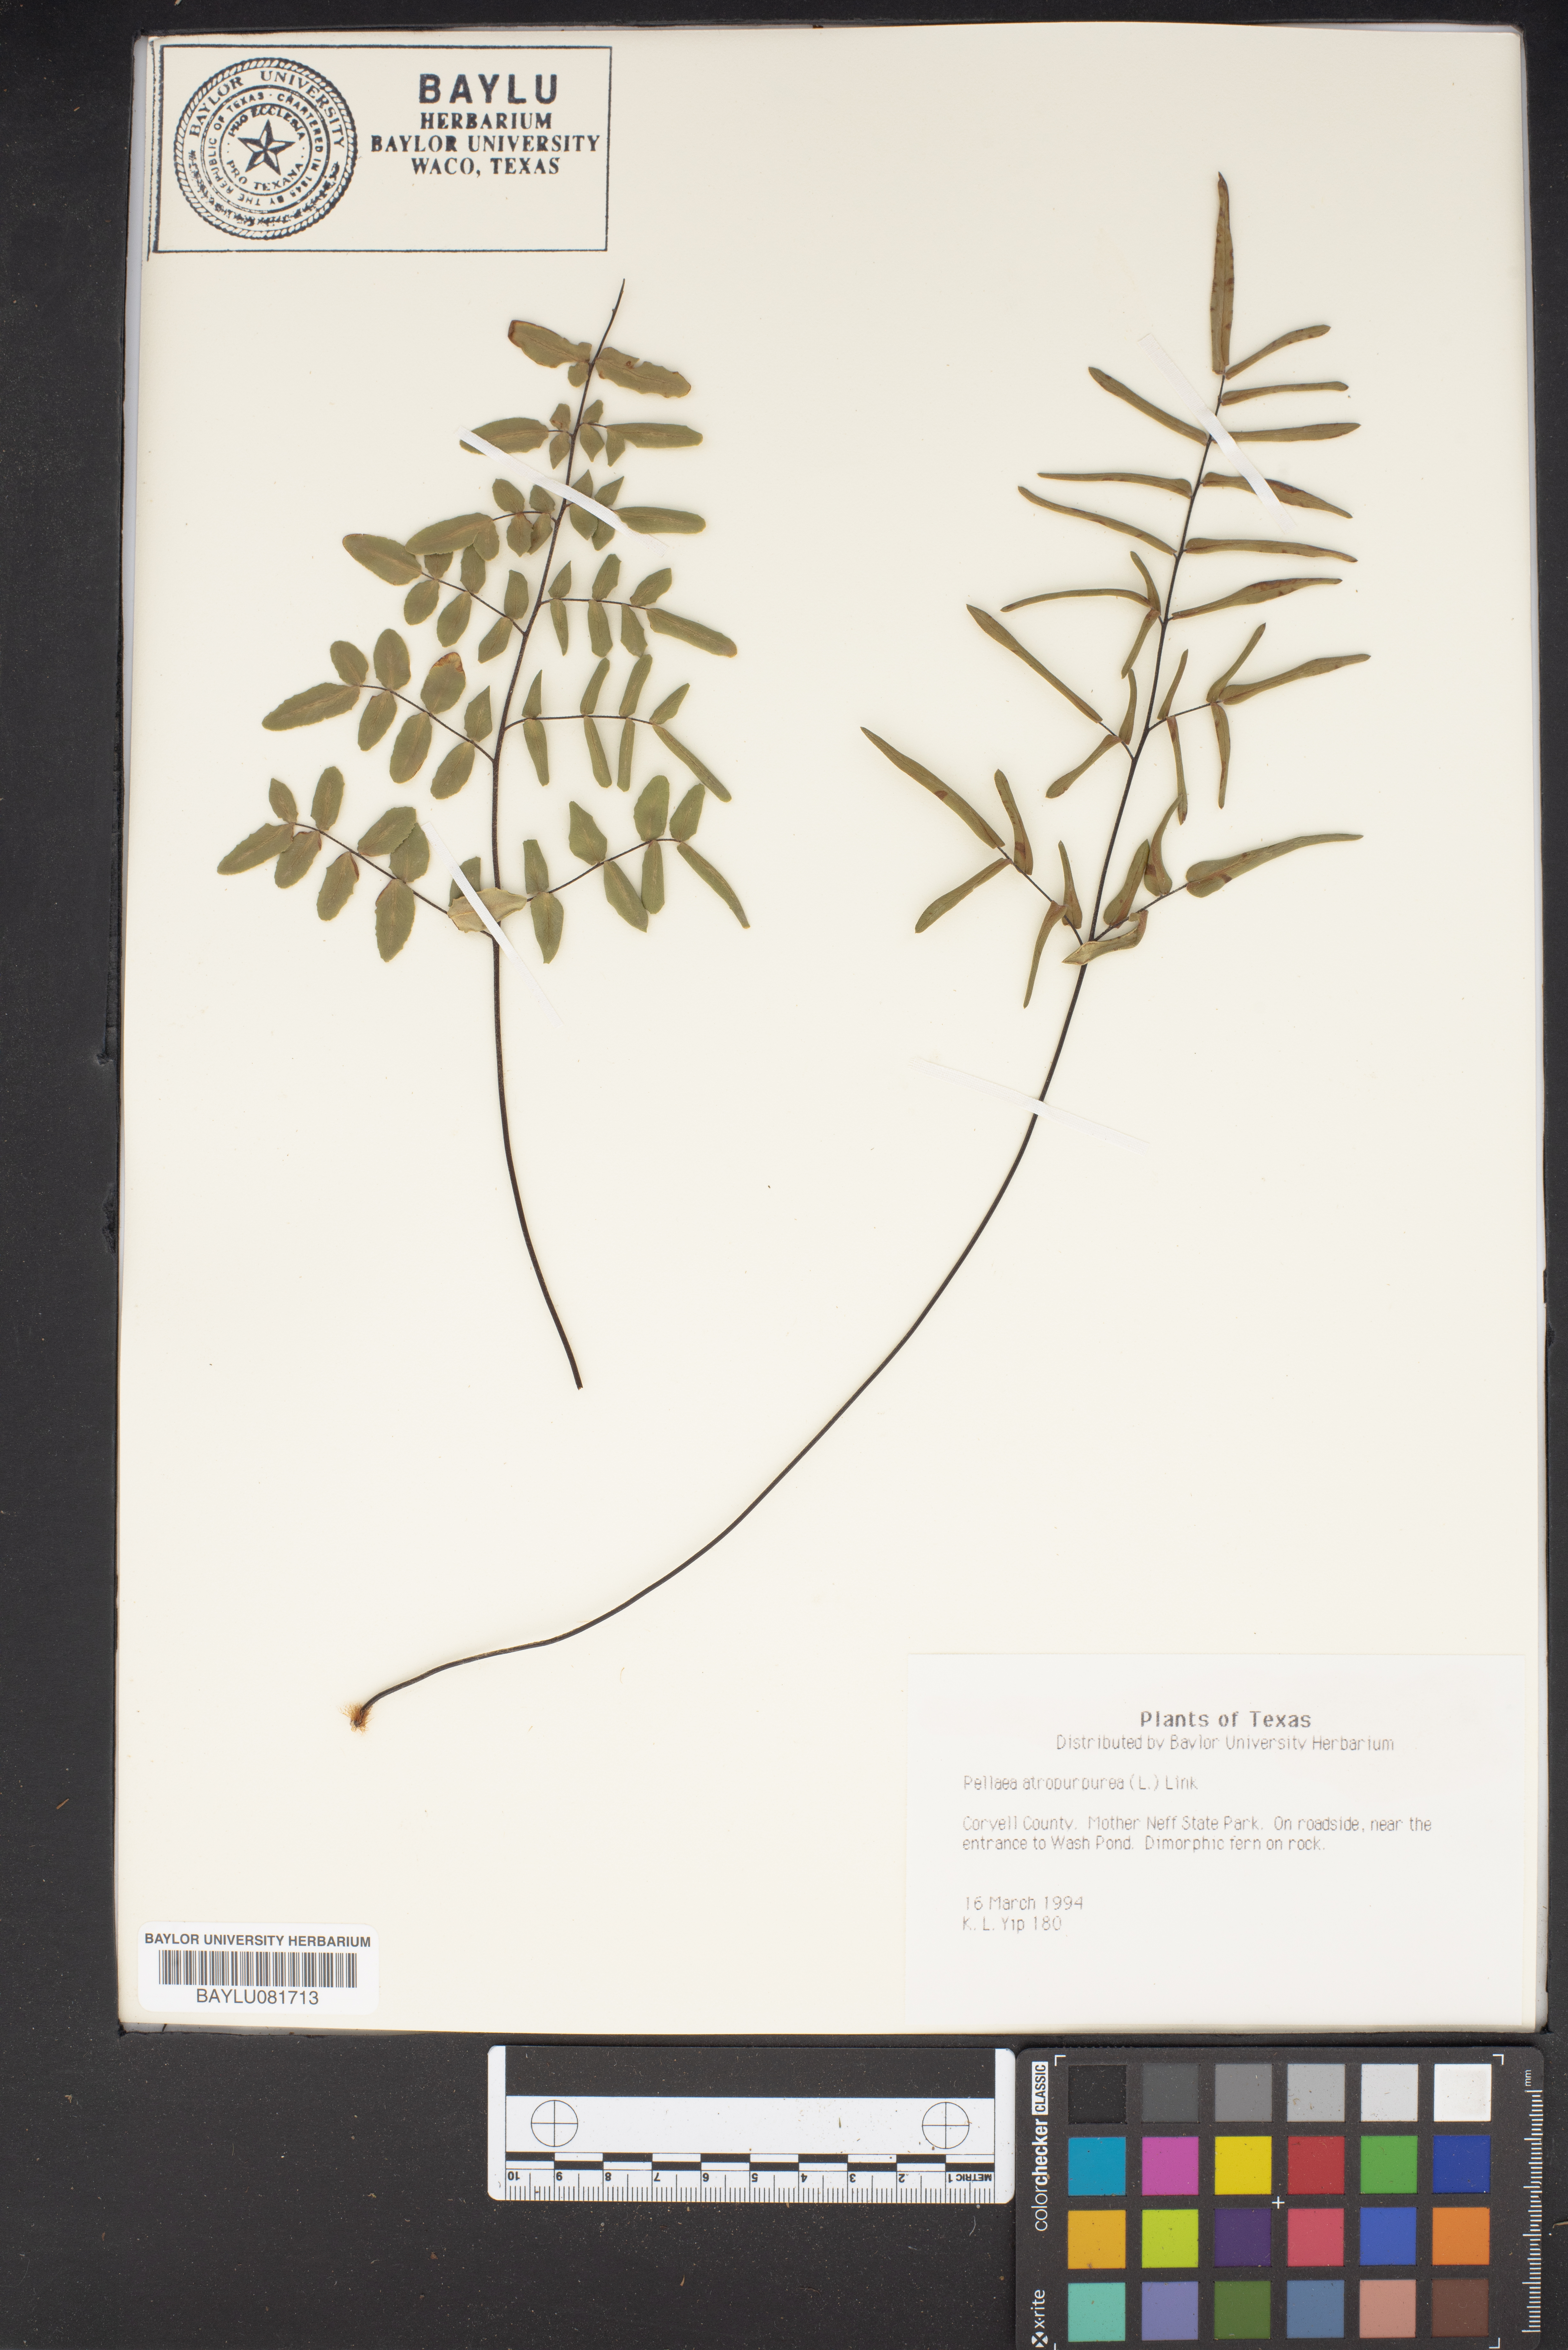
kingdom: Plantae
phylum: Tracheophyta
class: Polypodiopsida
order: Polypodiales
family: Pteridaceae
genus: Pellaea
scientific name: Pellaea atropurpurea
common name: Hairy cliffbrake
